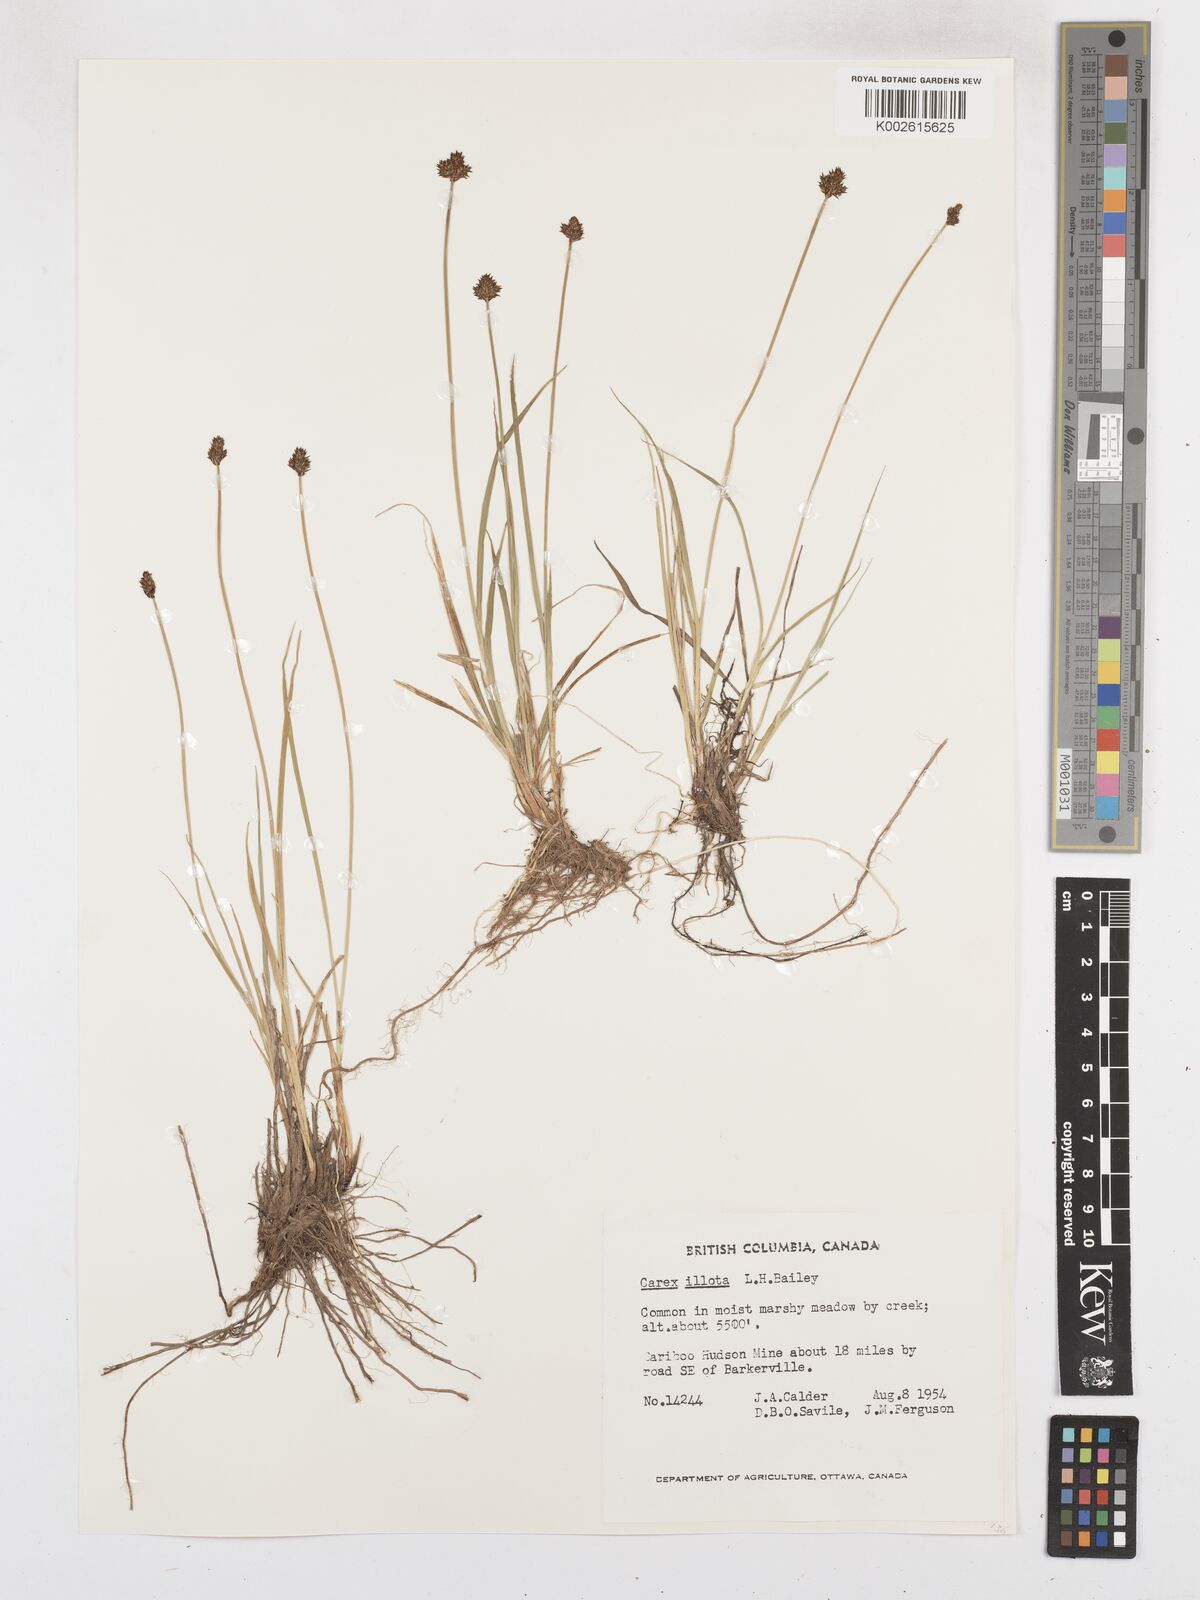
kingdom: Plantae
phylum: Tracheophyta
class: Liliopsida
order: Poales
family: Cyperaceae
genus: Carex
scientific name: Carex illota
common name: Sheep sedge
